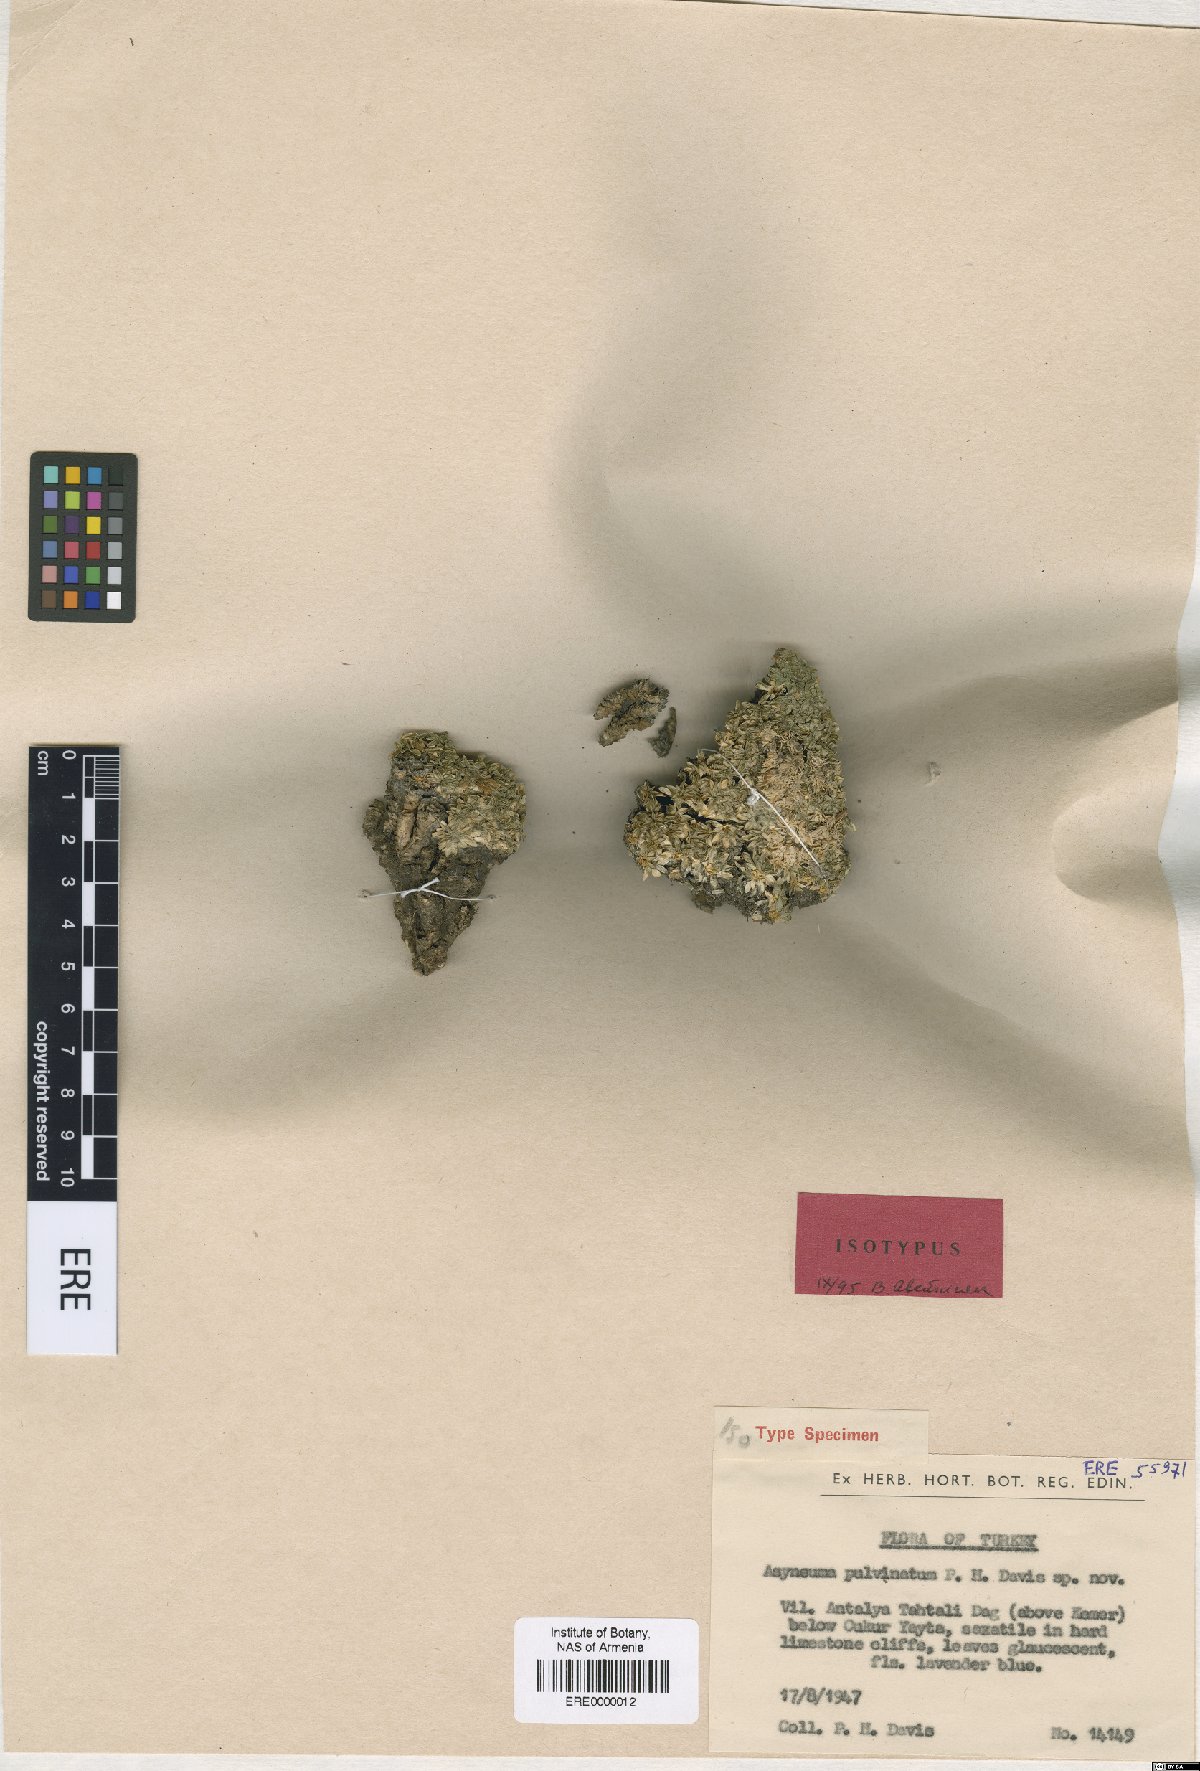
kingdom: Plantae
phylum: Tracheophyta
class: Magnoliopsida
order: Asterales
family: Campanulaceae
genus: Asyneuma
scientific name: Asyneuma pulvinatum
